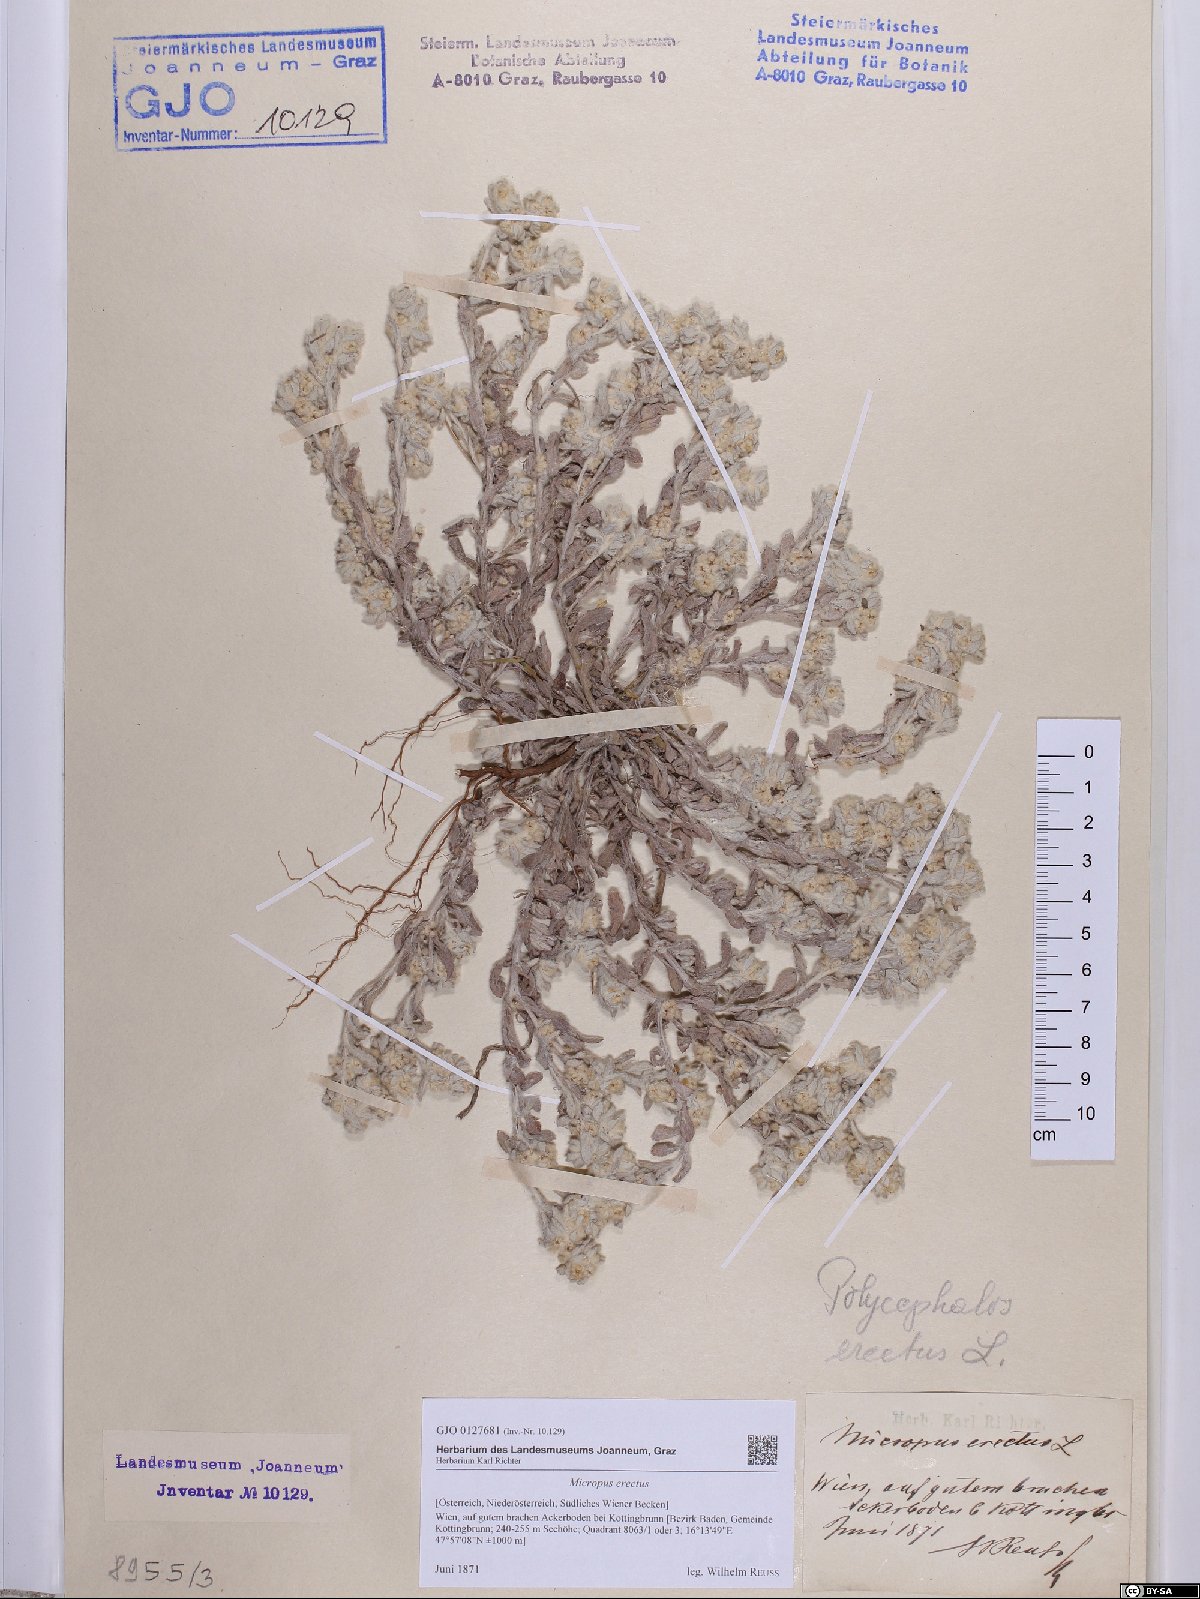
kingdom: Plantae
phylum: Tracheophyta
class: Magnoliopsida
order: Asterales
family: Asteraceae
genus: Bombycilaena
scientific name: Bombycilaena erecta
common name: Micropus
